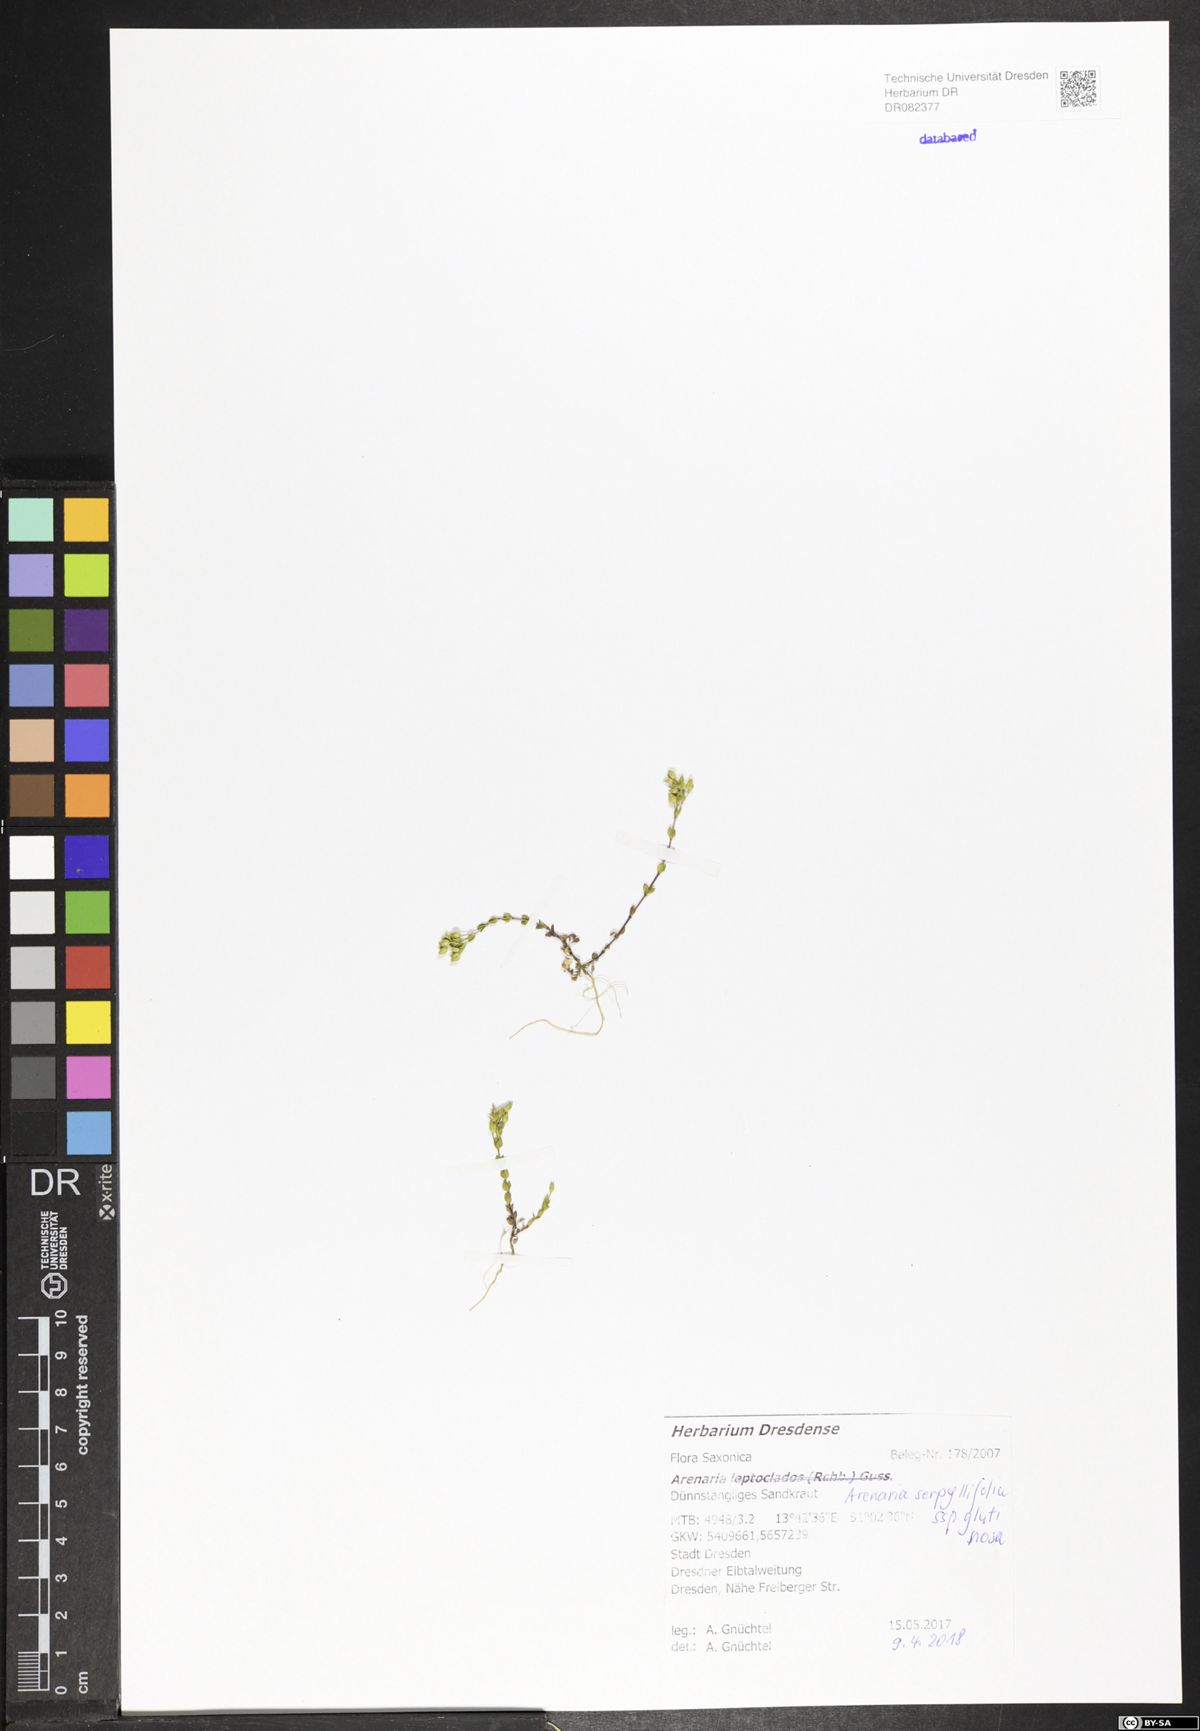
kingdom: Plantae
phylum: Tracheophyta
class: Magnoliopsida
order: Caryophyllales
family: Caryophyllaceae
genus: Arenaria
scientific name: Arenaria serpyllifolia
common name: Thyme-leaved sandwort
